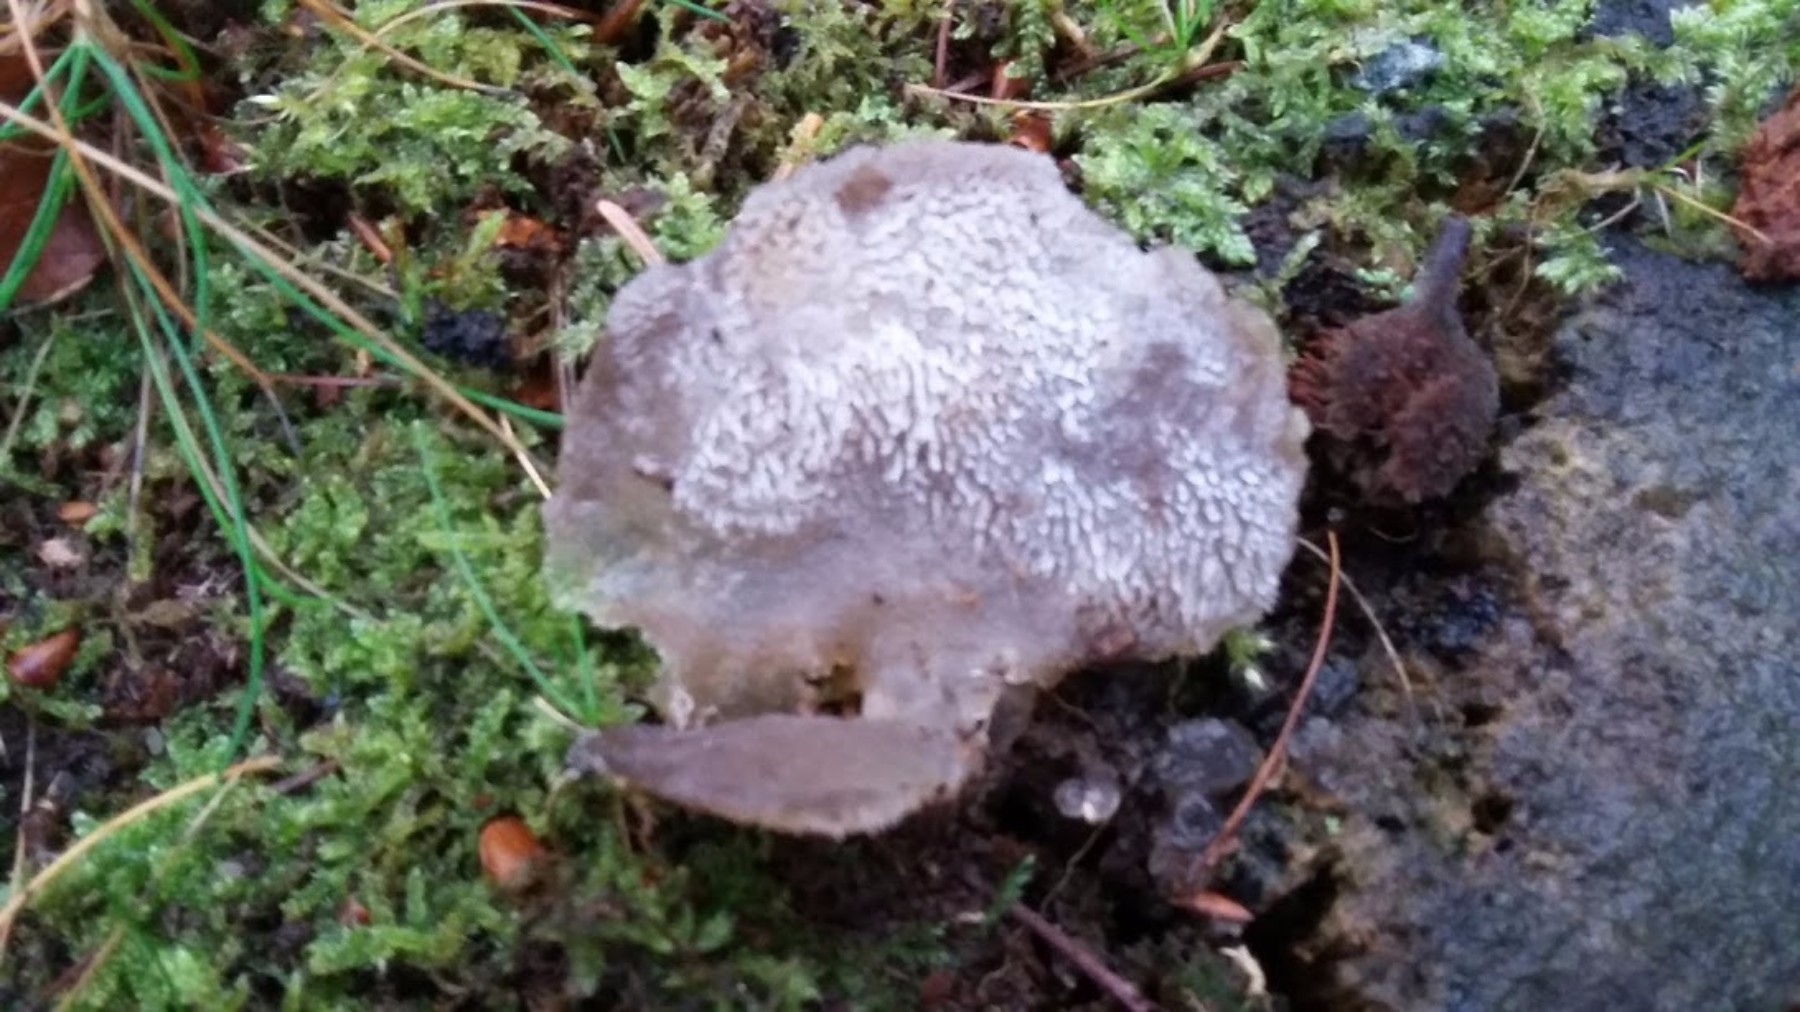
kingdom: Fungi
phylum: Basidiomycota
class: Agaricomycetes
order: Auriculariales
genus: Pseudohydnum
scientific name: Pseudohydnum gelatinosum
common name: bævretand
